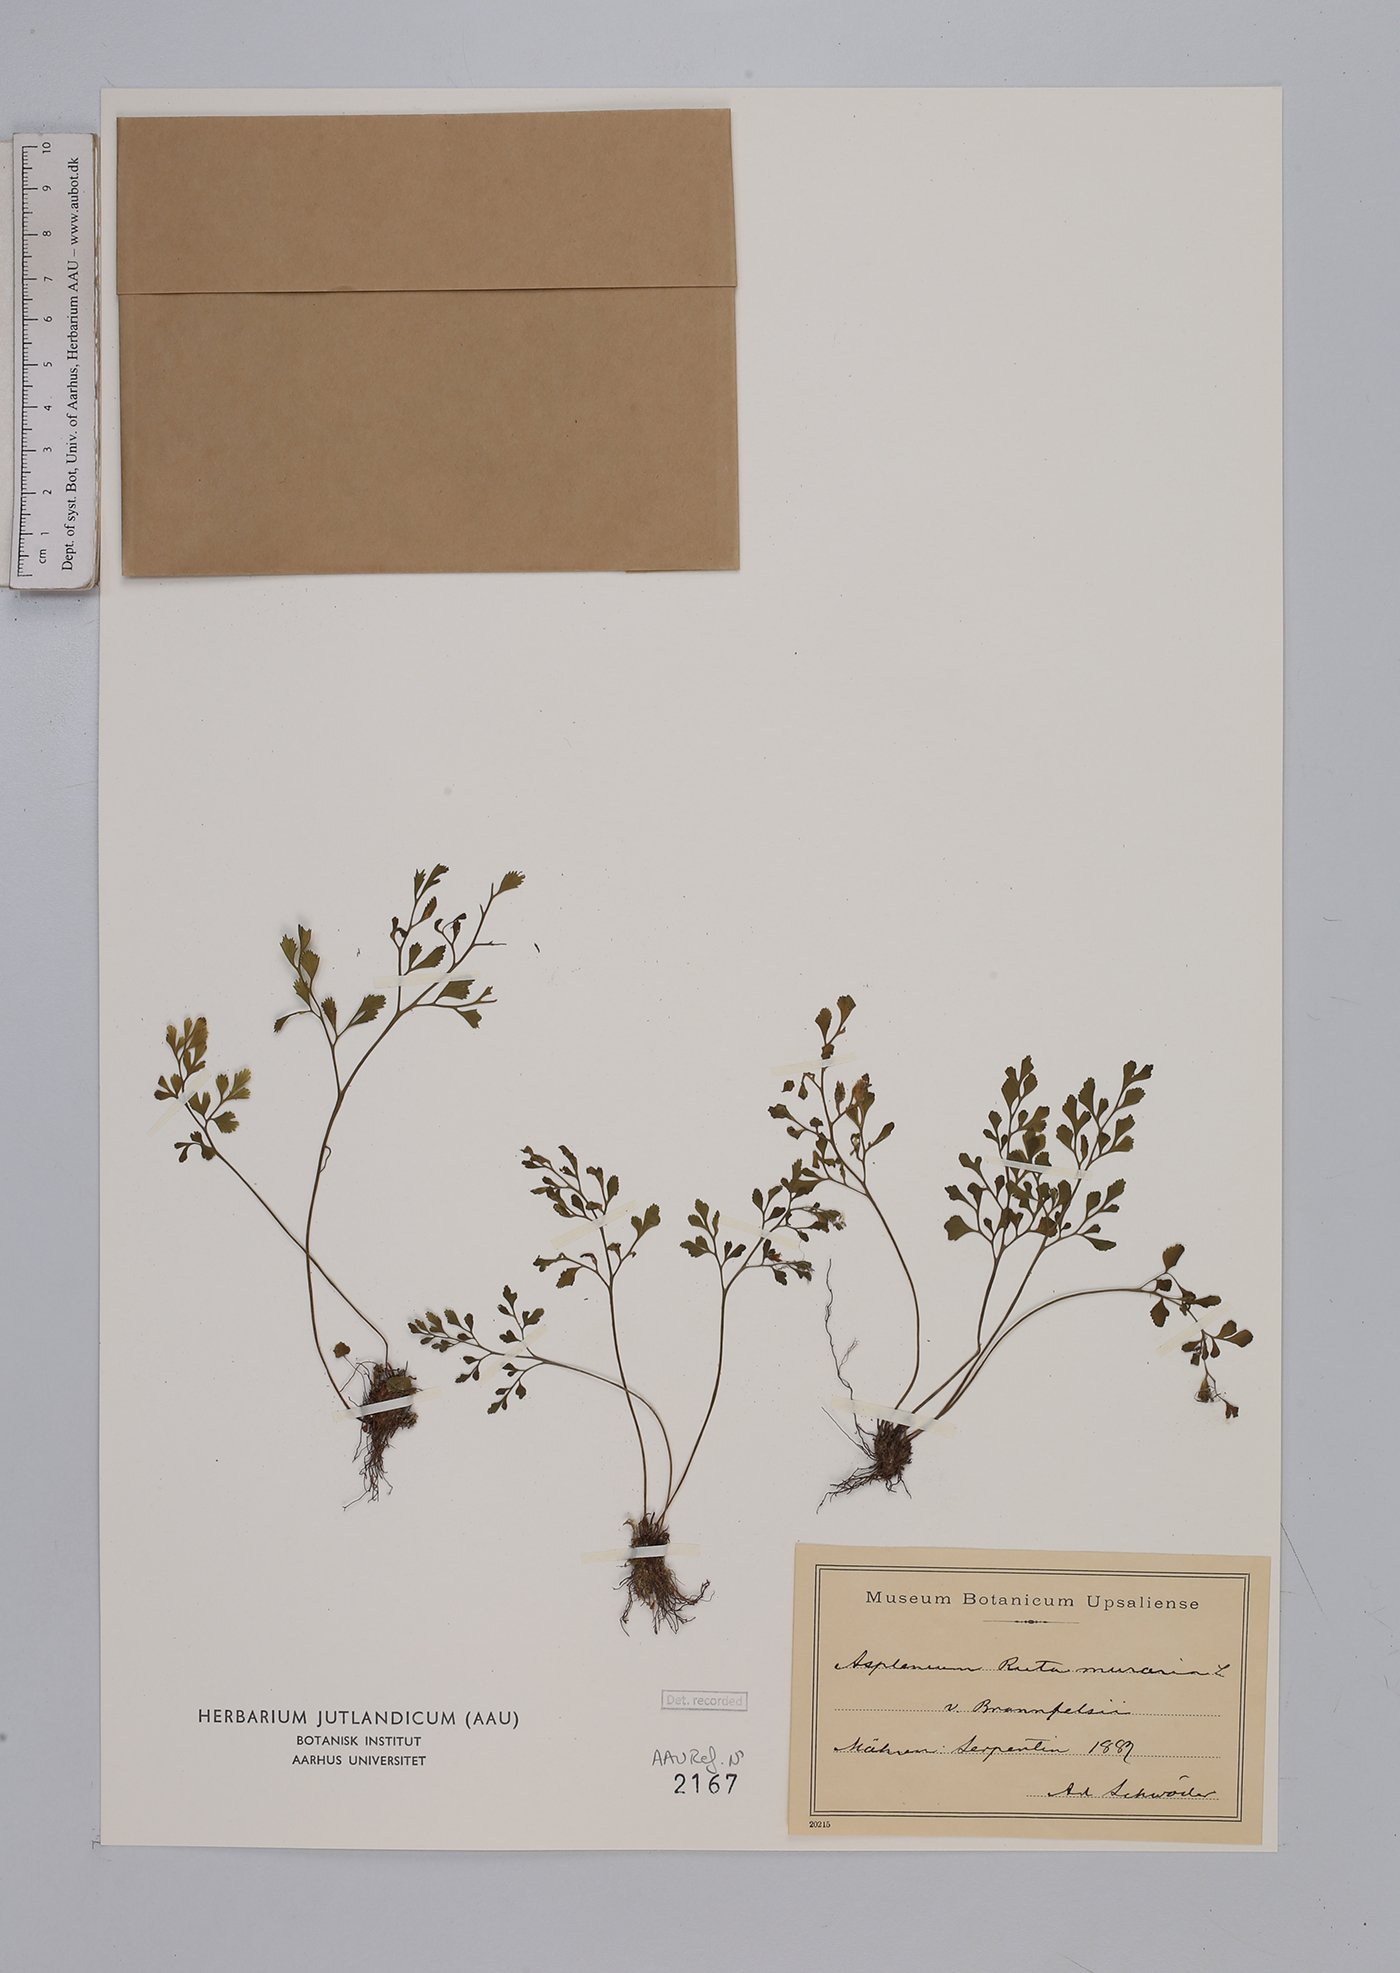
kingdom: Plantae
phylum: Tracheophyta
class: Polypodiopsida
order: Polypodiales
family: Aspleniaceae
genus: Asplenium
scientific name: Asplenium ruta-muraria
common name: Wall-rue
